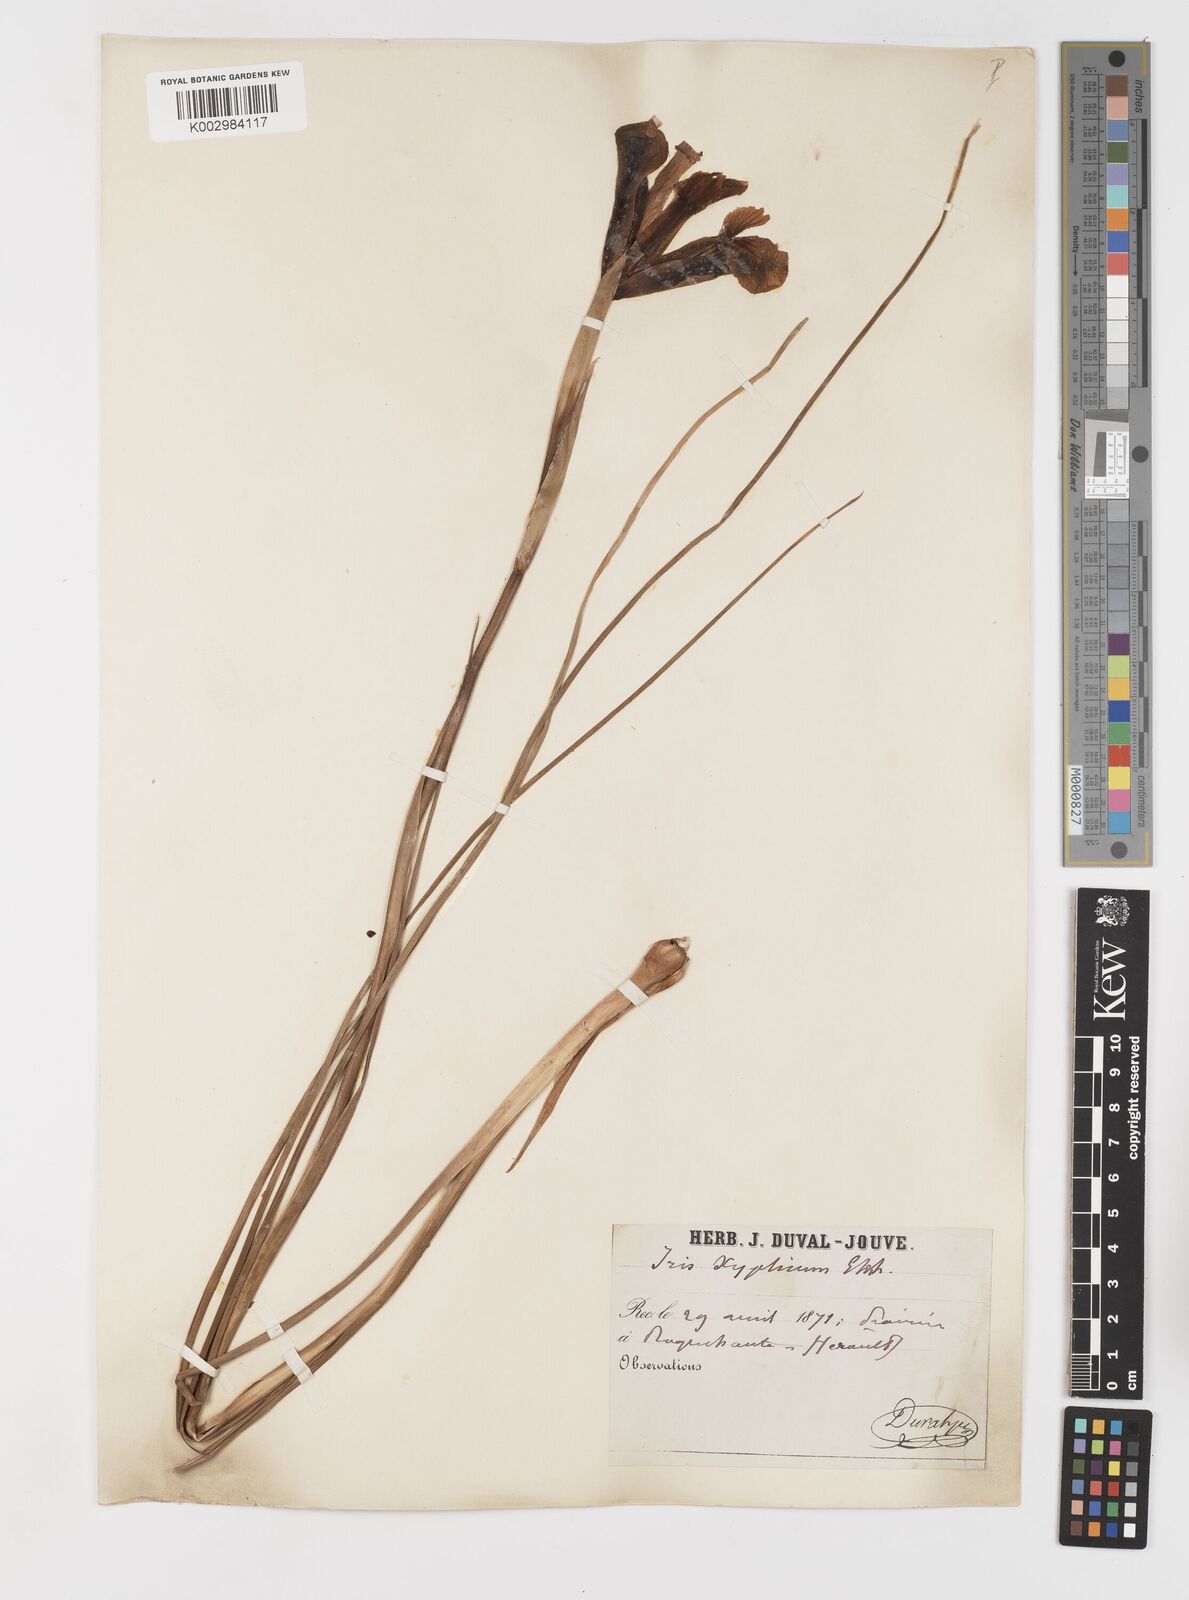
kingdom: Plantae
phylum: Tracheophyta
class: Liliopsida
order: Asparagales
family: Iridaceae
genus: Iris
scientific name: Iris xiphium
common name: Spanish iris
